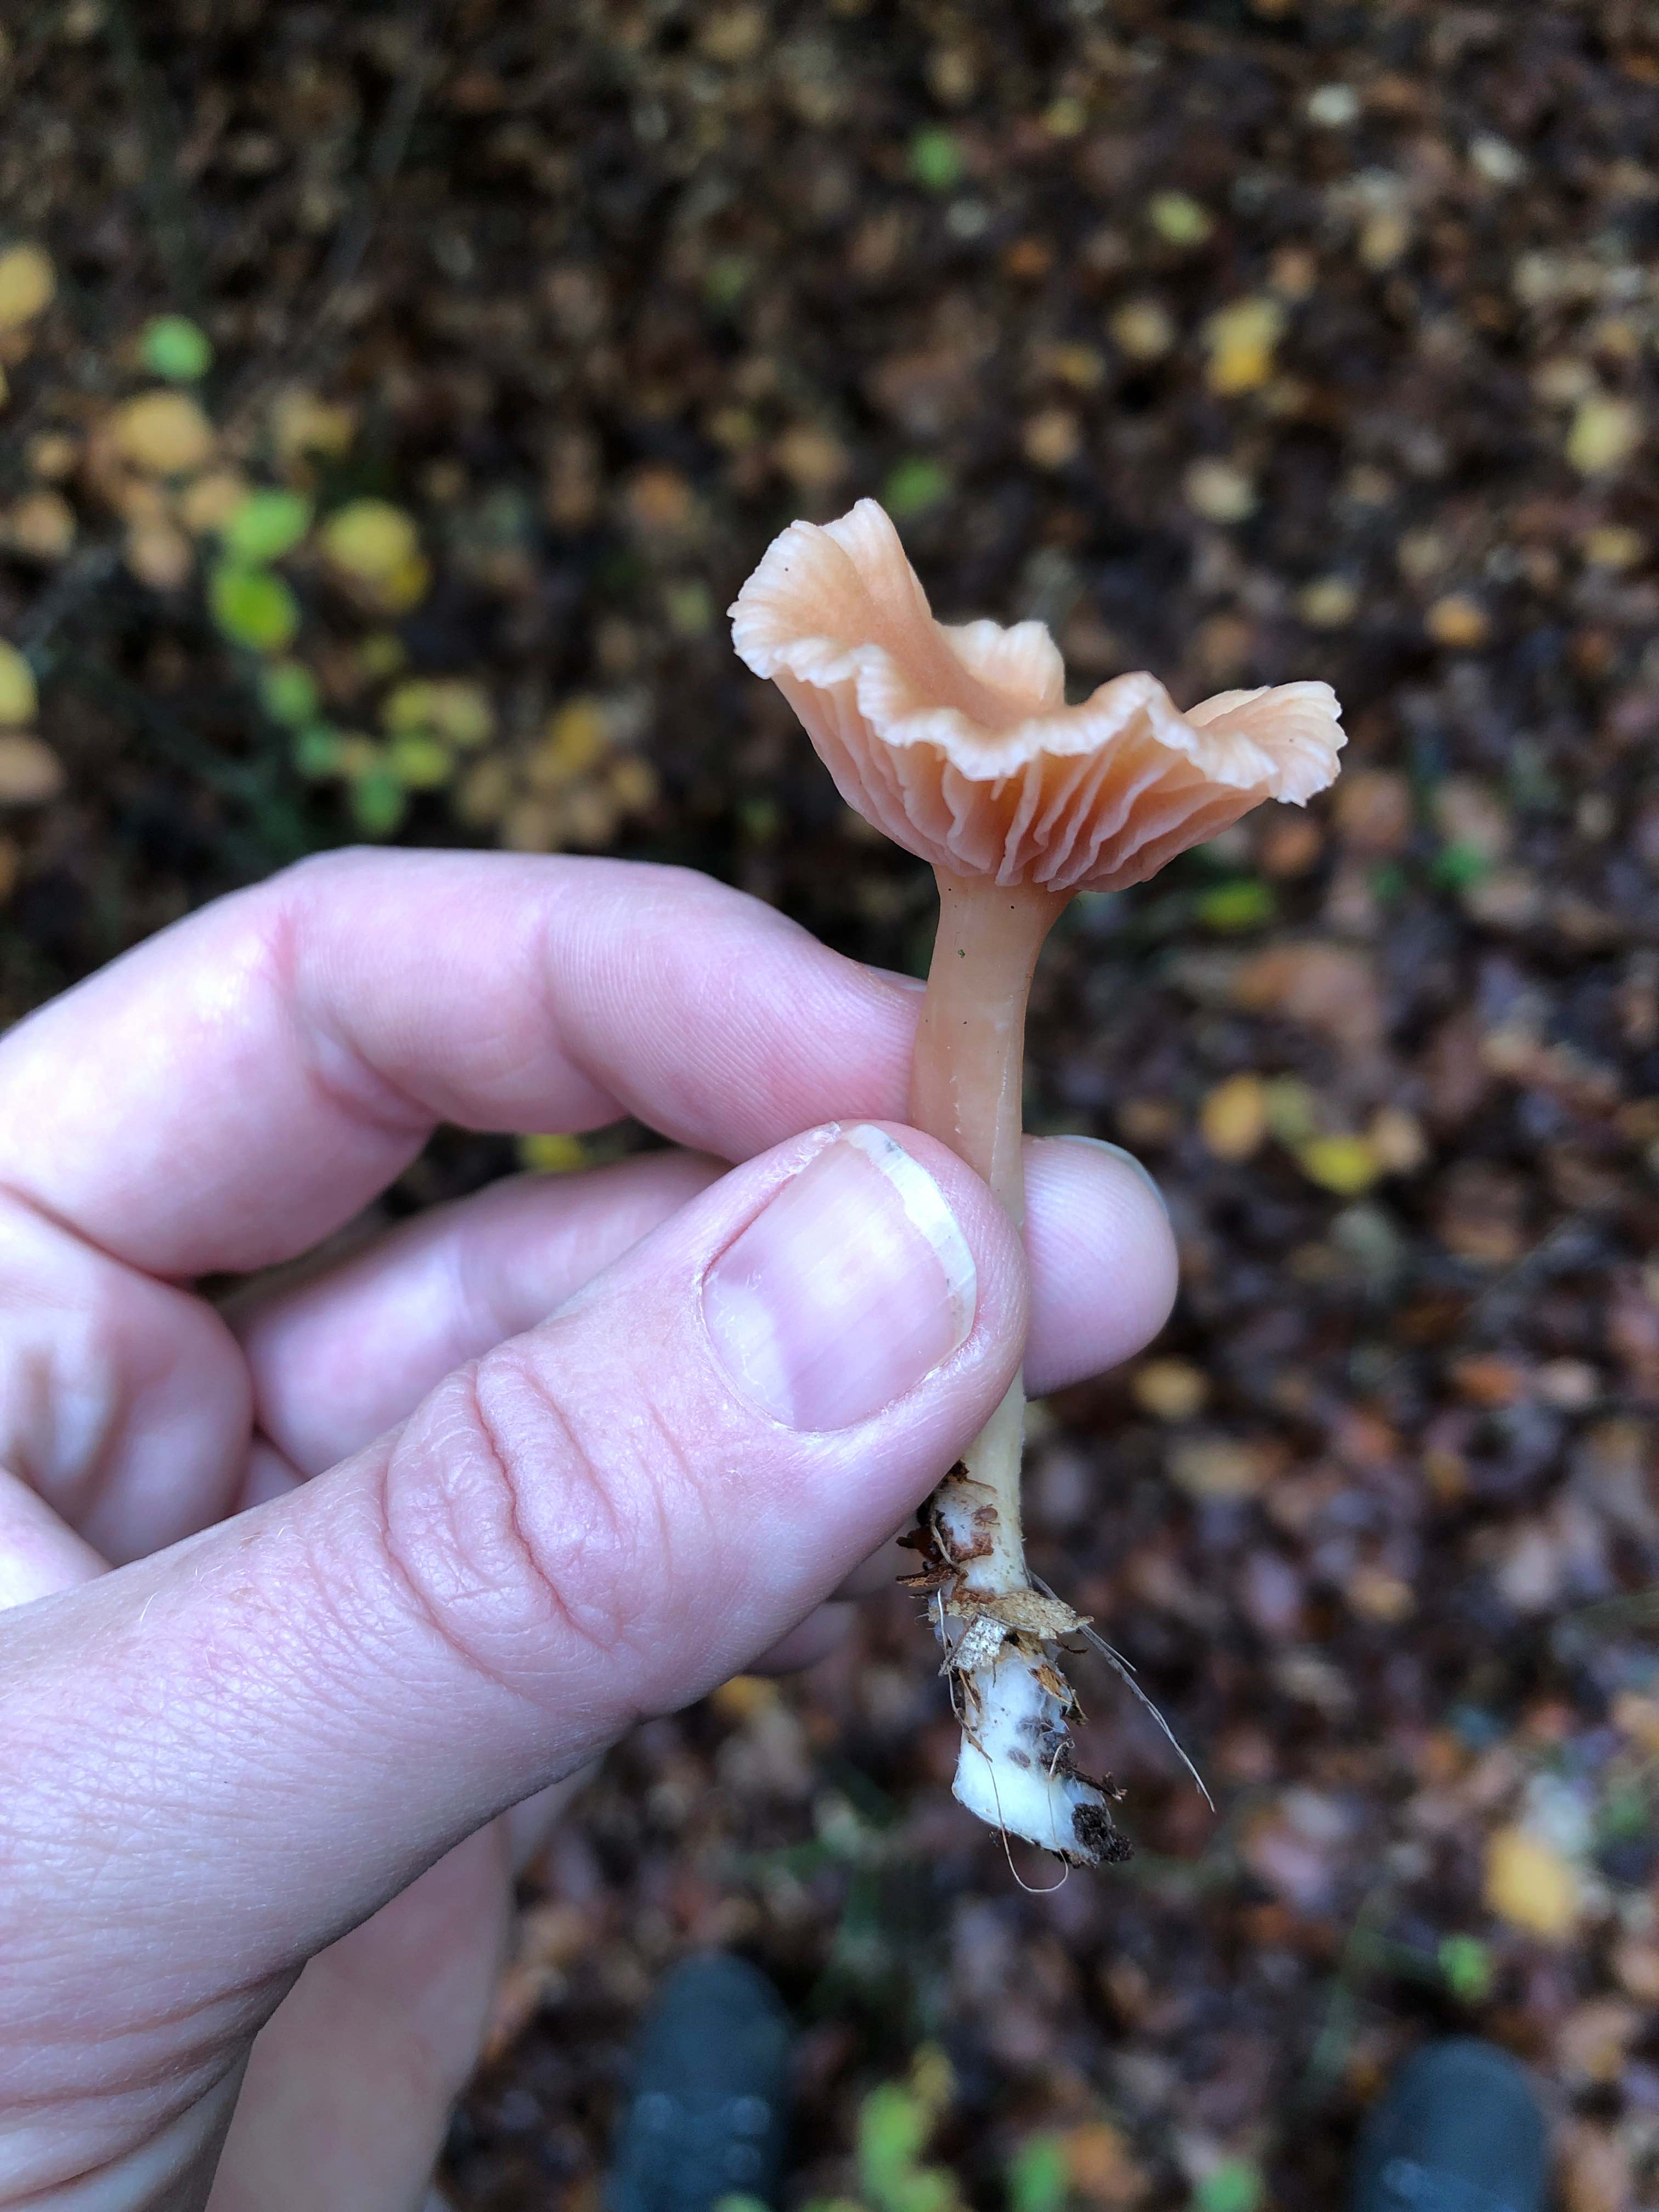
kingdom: Fungi
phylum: Basidiomycota
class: Agaricomycetes
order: Agaricales
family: Hydnangiaceae
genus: Laccaria
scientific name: Laccaria laccata
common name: rød ametysthat
